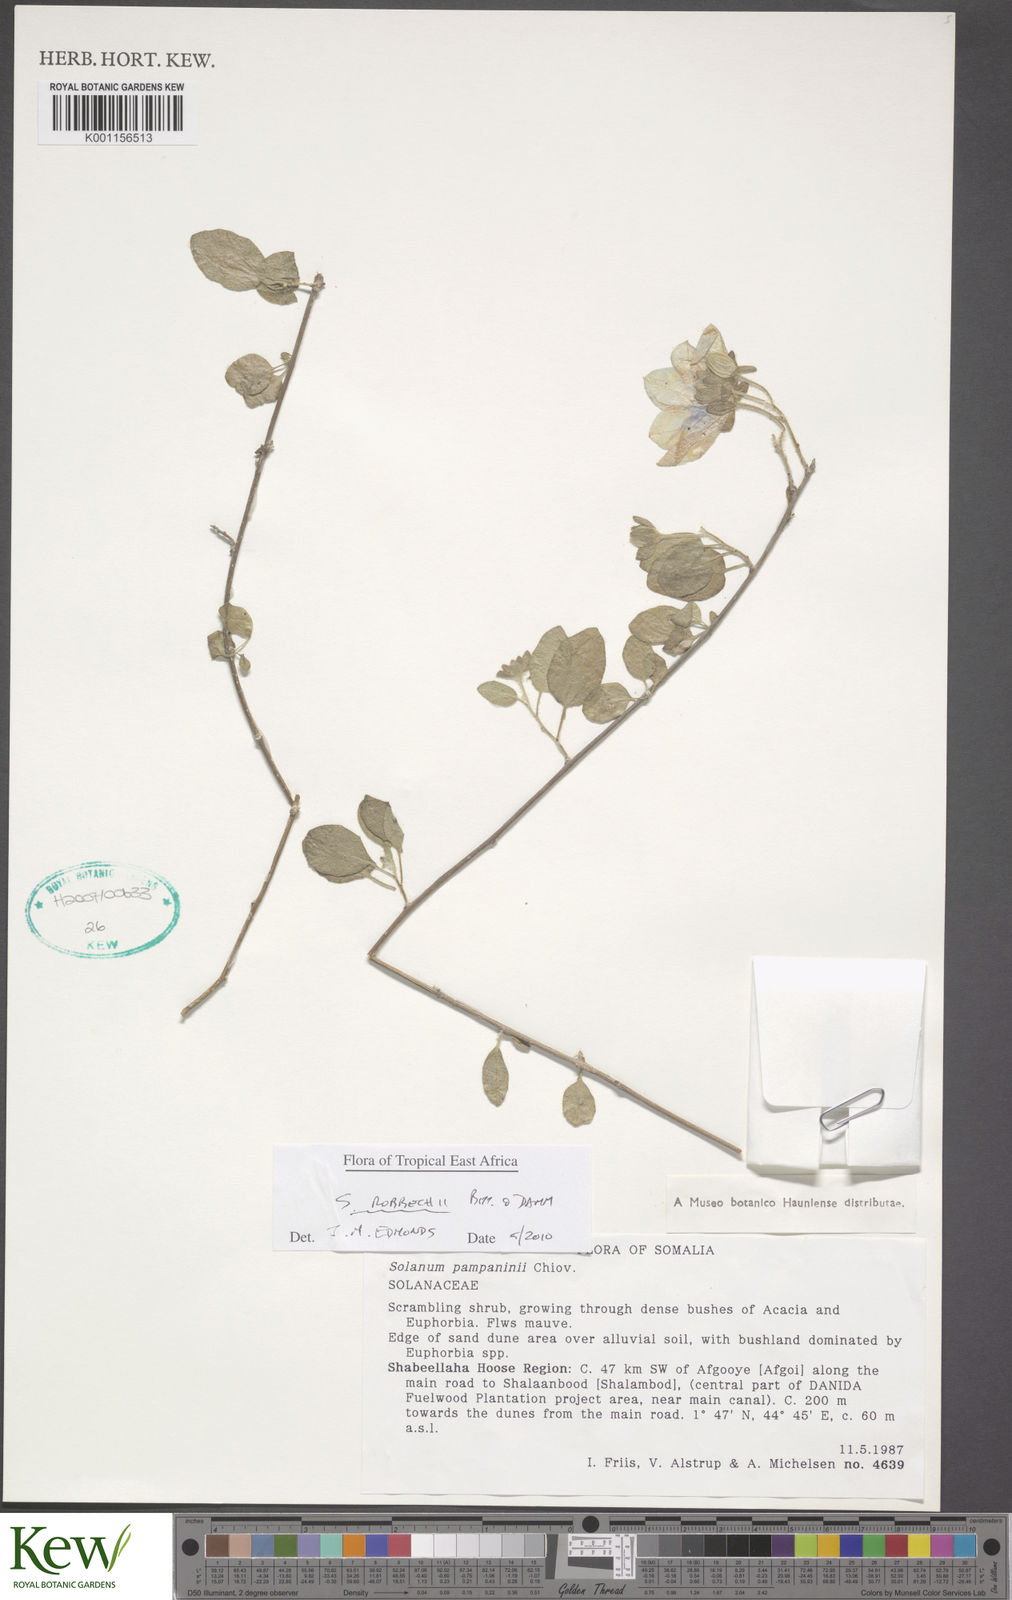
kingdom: Plantae
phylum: Tracheophyta
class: Magnoliopsida
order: Solanales
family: Solanaceae
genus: Solanum
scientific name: Solanum pampaninii
